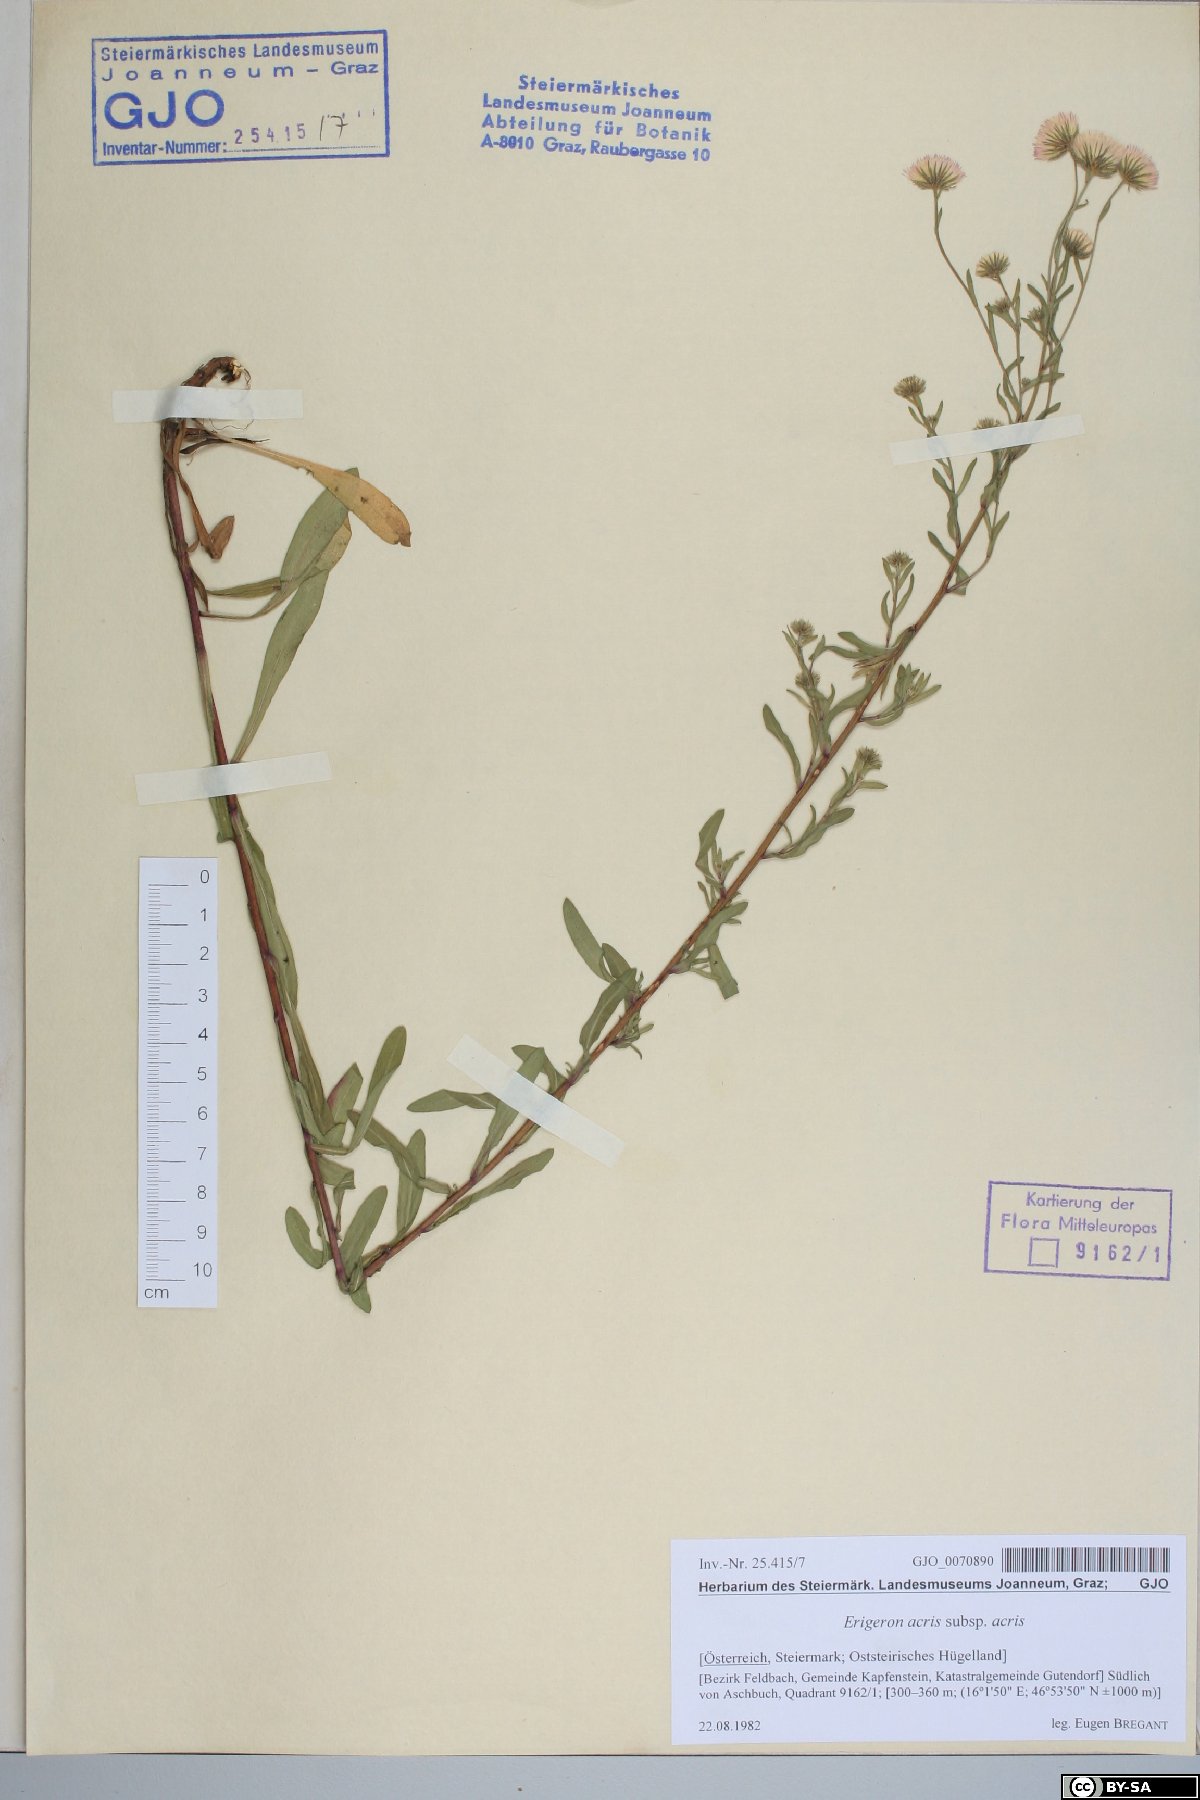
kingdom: Plantae
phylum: Tracheophyta
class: Magnoliopsida
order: Asterales
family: Asteraceae
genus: Erigeron
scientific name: Erigeron muralis
